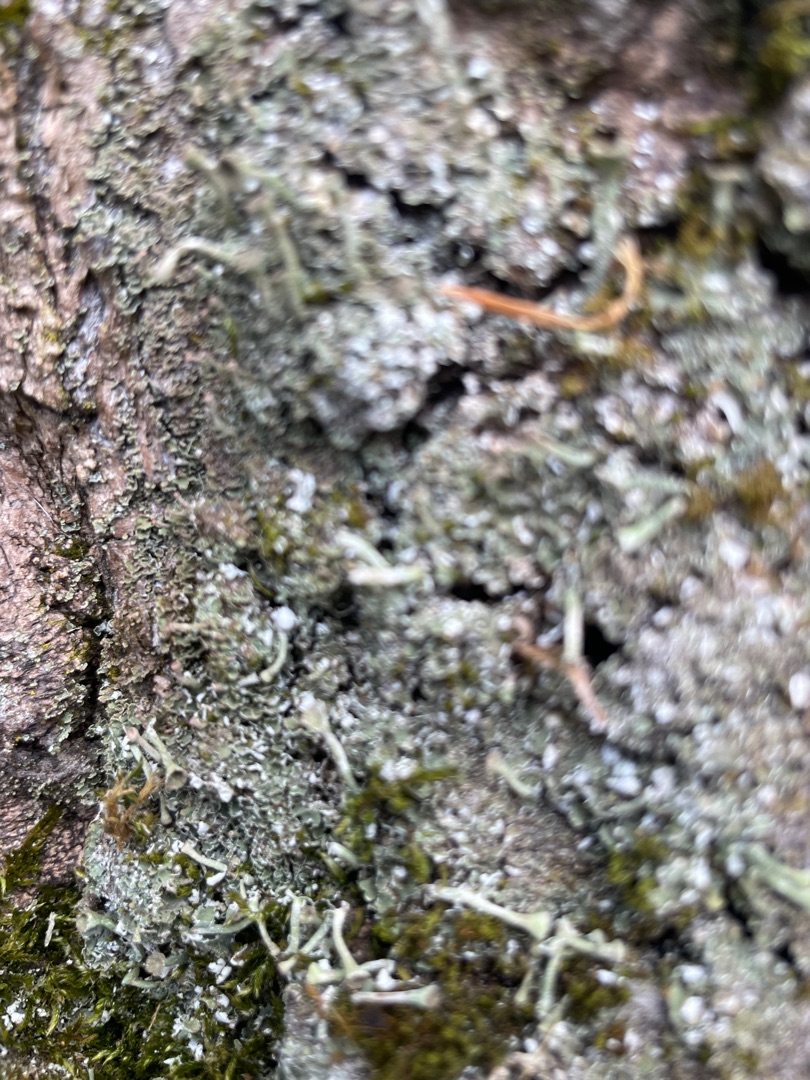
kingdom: Fungi
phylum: Ascomycota
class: Lecanoromycetes
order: Lecanorales
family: Cladoniaceae
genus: Cladonia
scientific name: Cladonia
